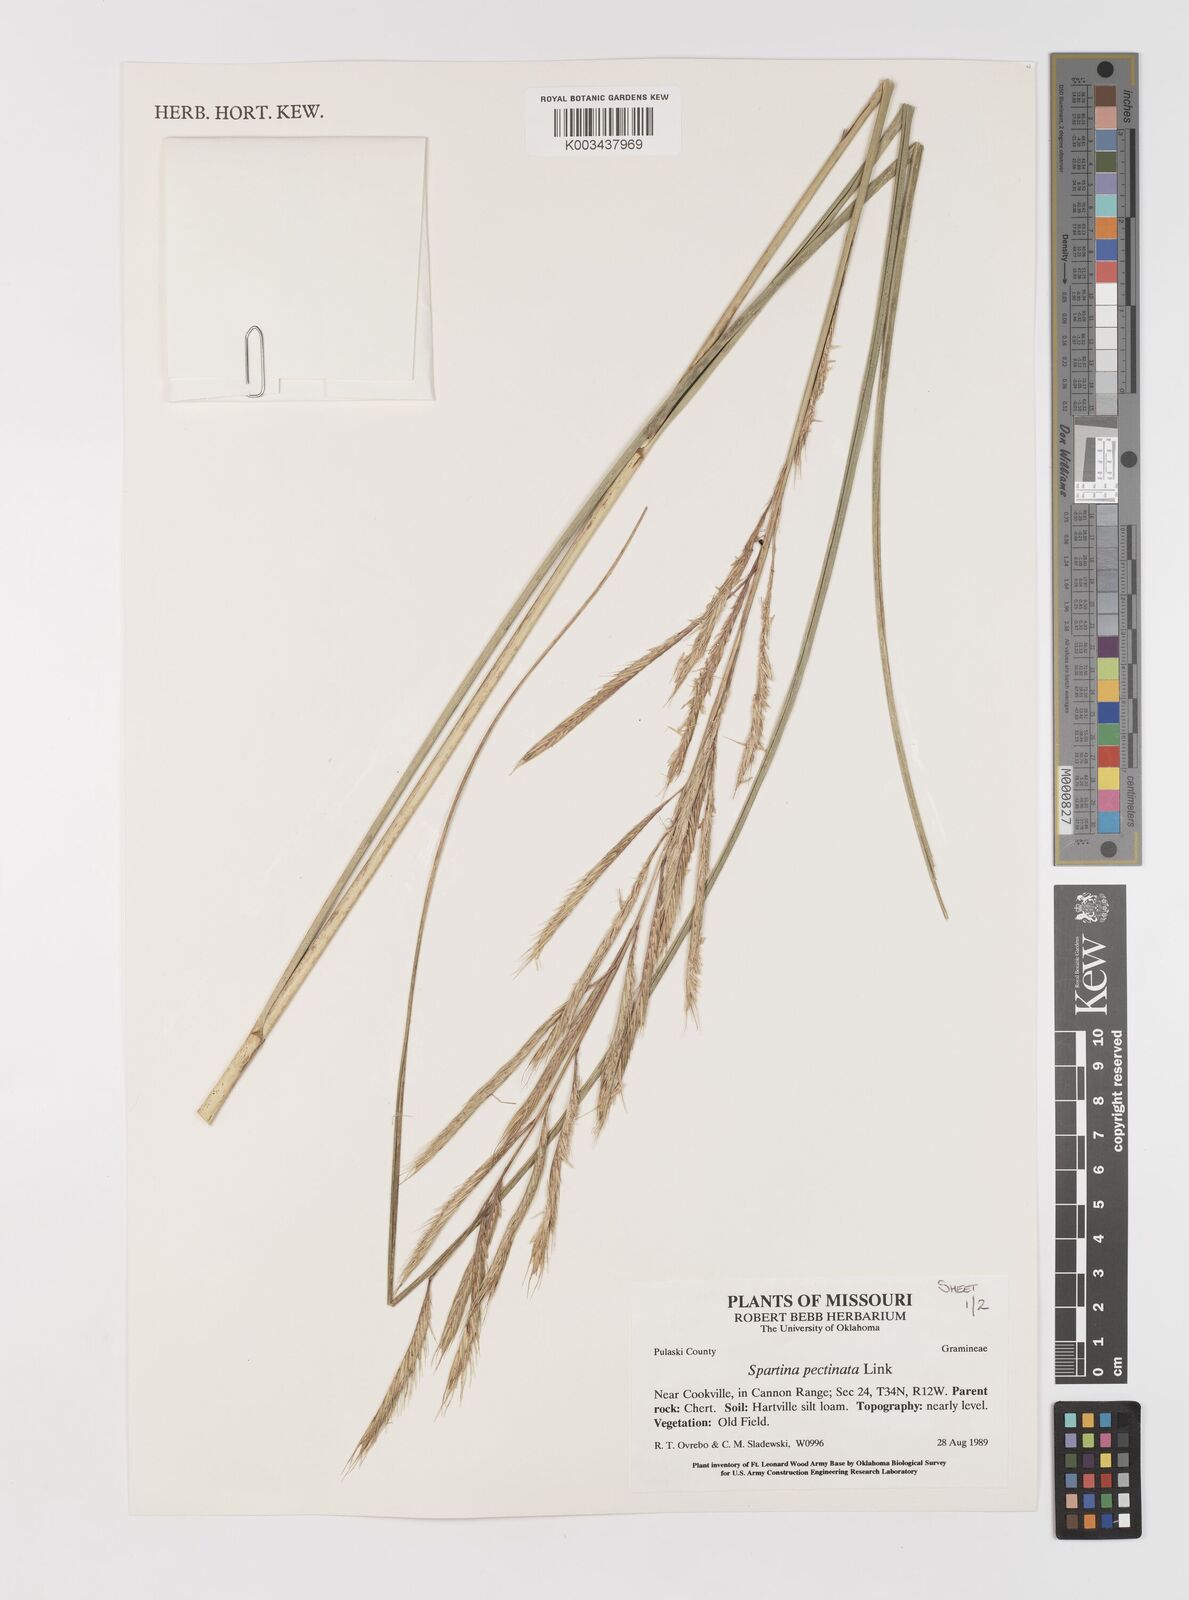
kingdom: Plantae
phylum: Tracheophyta
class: Liliopsida
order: Poales
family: Poaceae
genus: Sporobolus
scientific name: Sporobolus michauxianus
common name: Freshwater cordgrass
